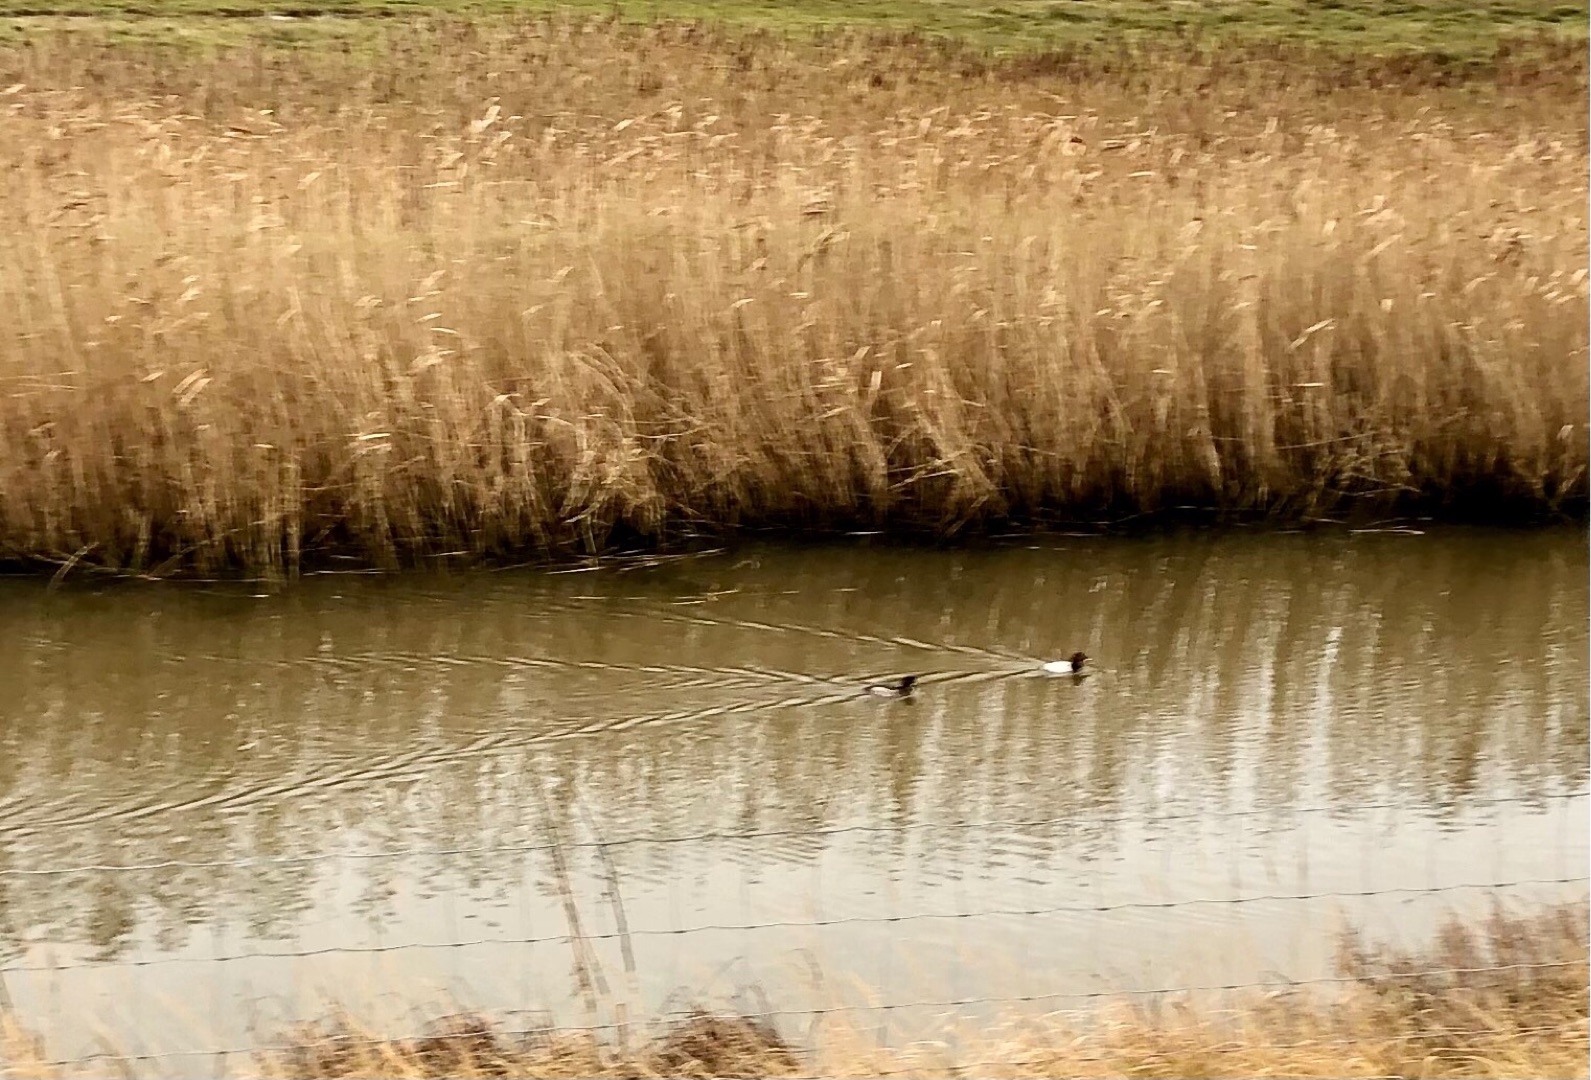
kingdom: Animalia
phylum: Chordata
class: Aves
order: Anseriformes
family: Anatidae
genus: Aythya
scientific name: Aythya ferina
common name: Taffeland
